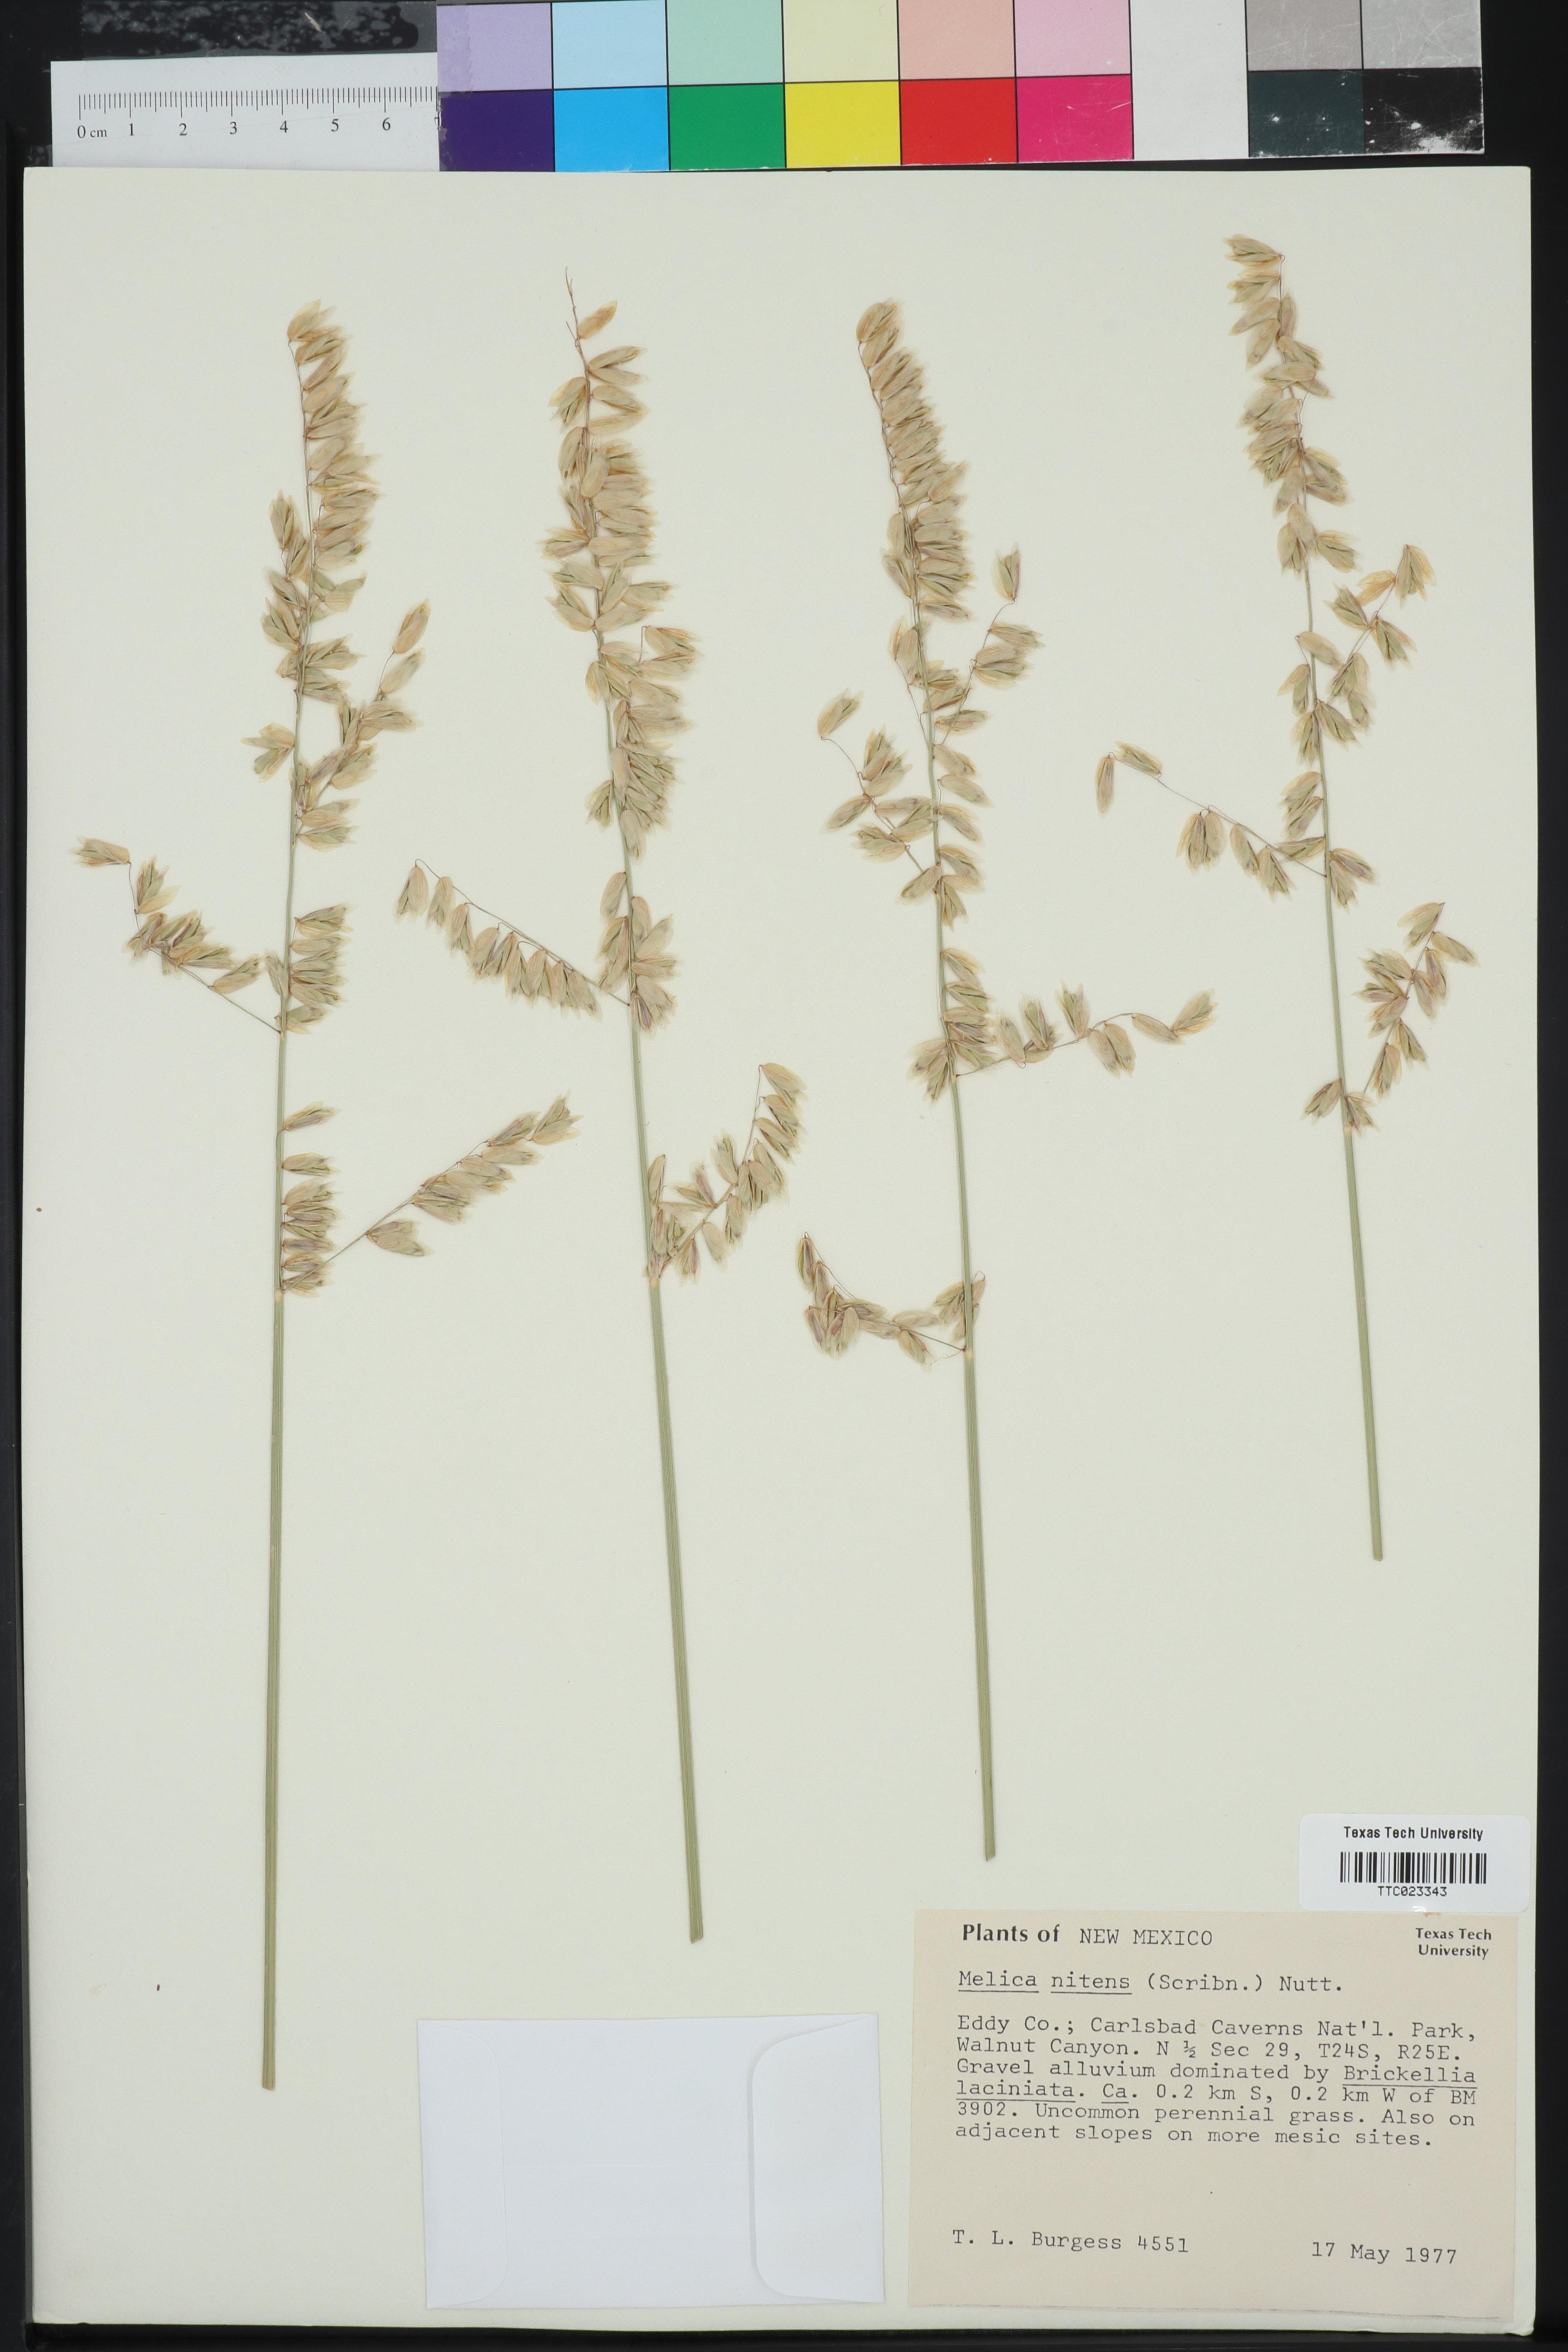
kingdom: Plantae
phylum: Tracheophyta
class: Liliopsida
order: Poales
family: Poaceae
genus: Melica
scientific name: Melica nitens
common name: Three-flower melic
